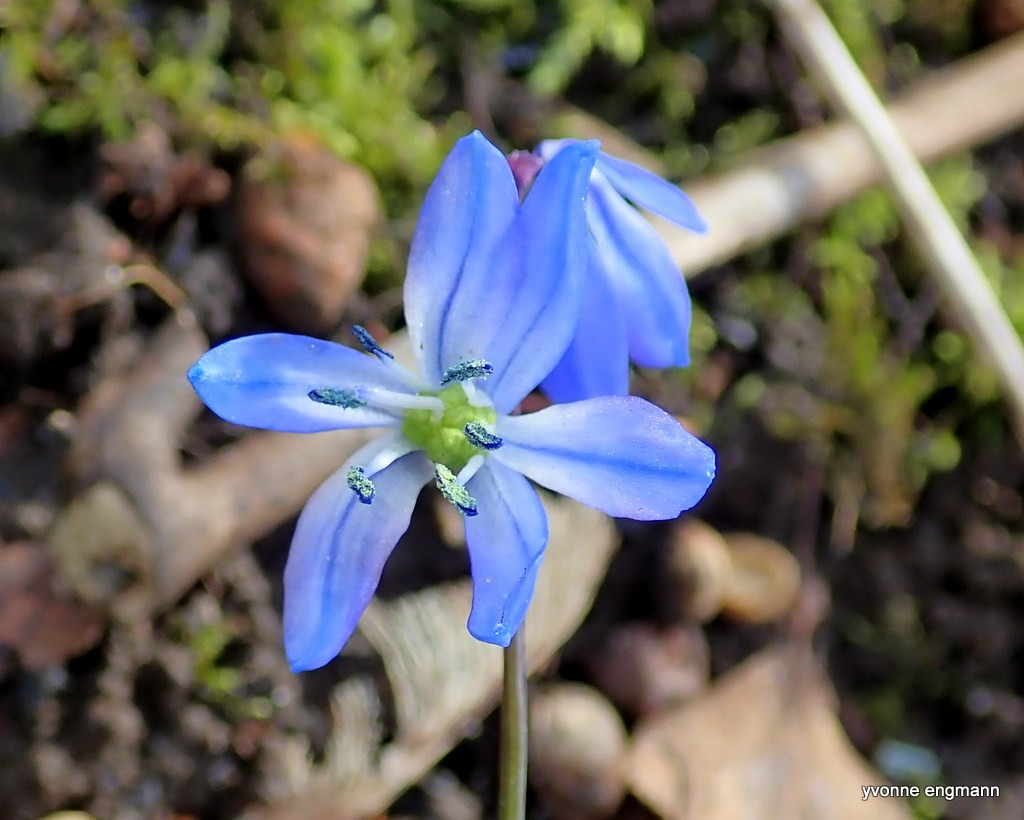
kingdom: Plantae
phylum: Tracheophyta
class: Liliopsida
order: Asparagales
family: Asparagaceae
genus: Scilla
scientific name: Scilla siberica
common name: Russisk skilla
